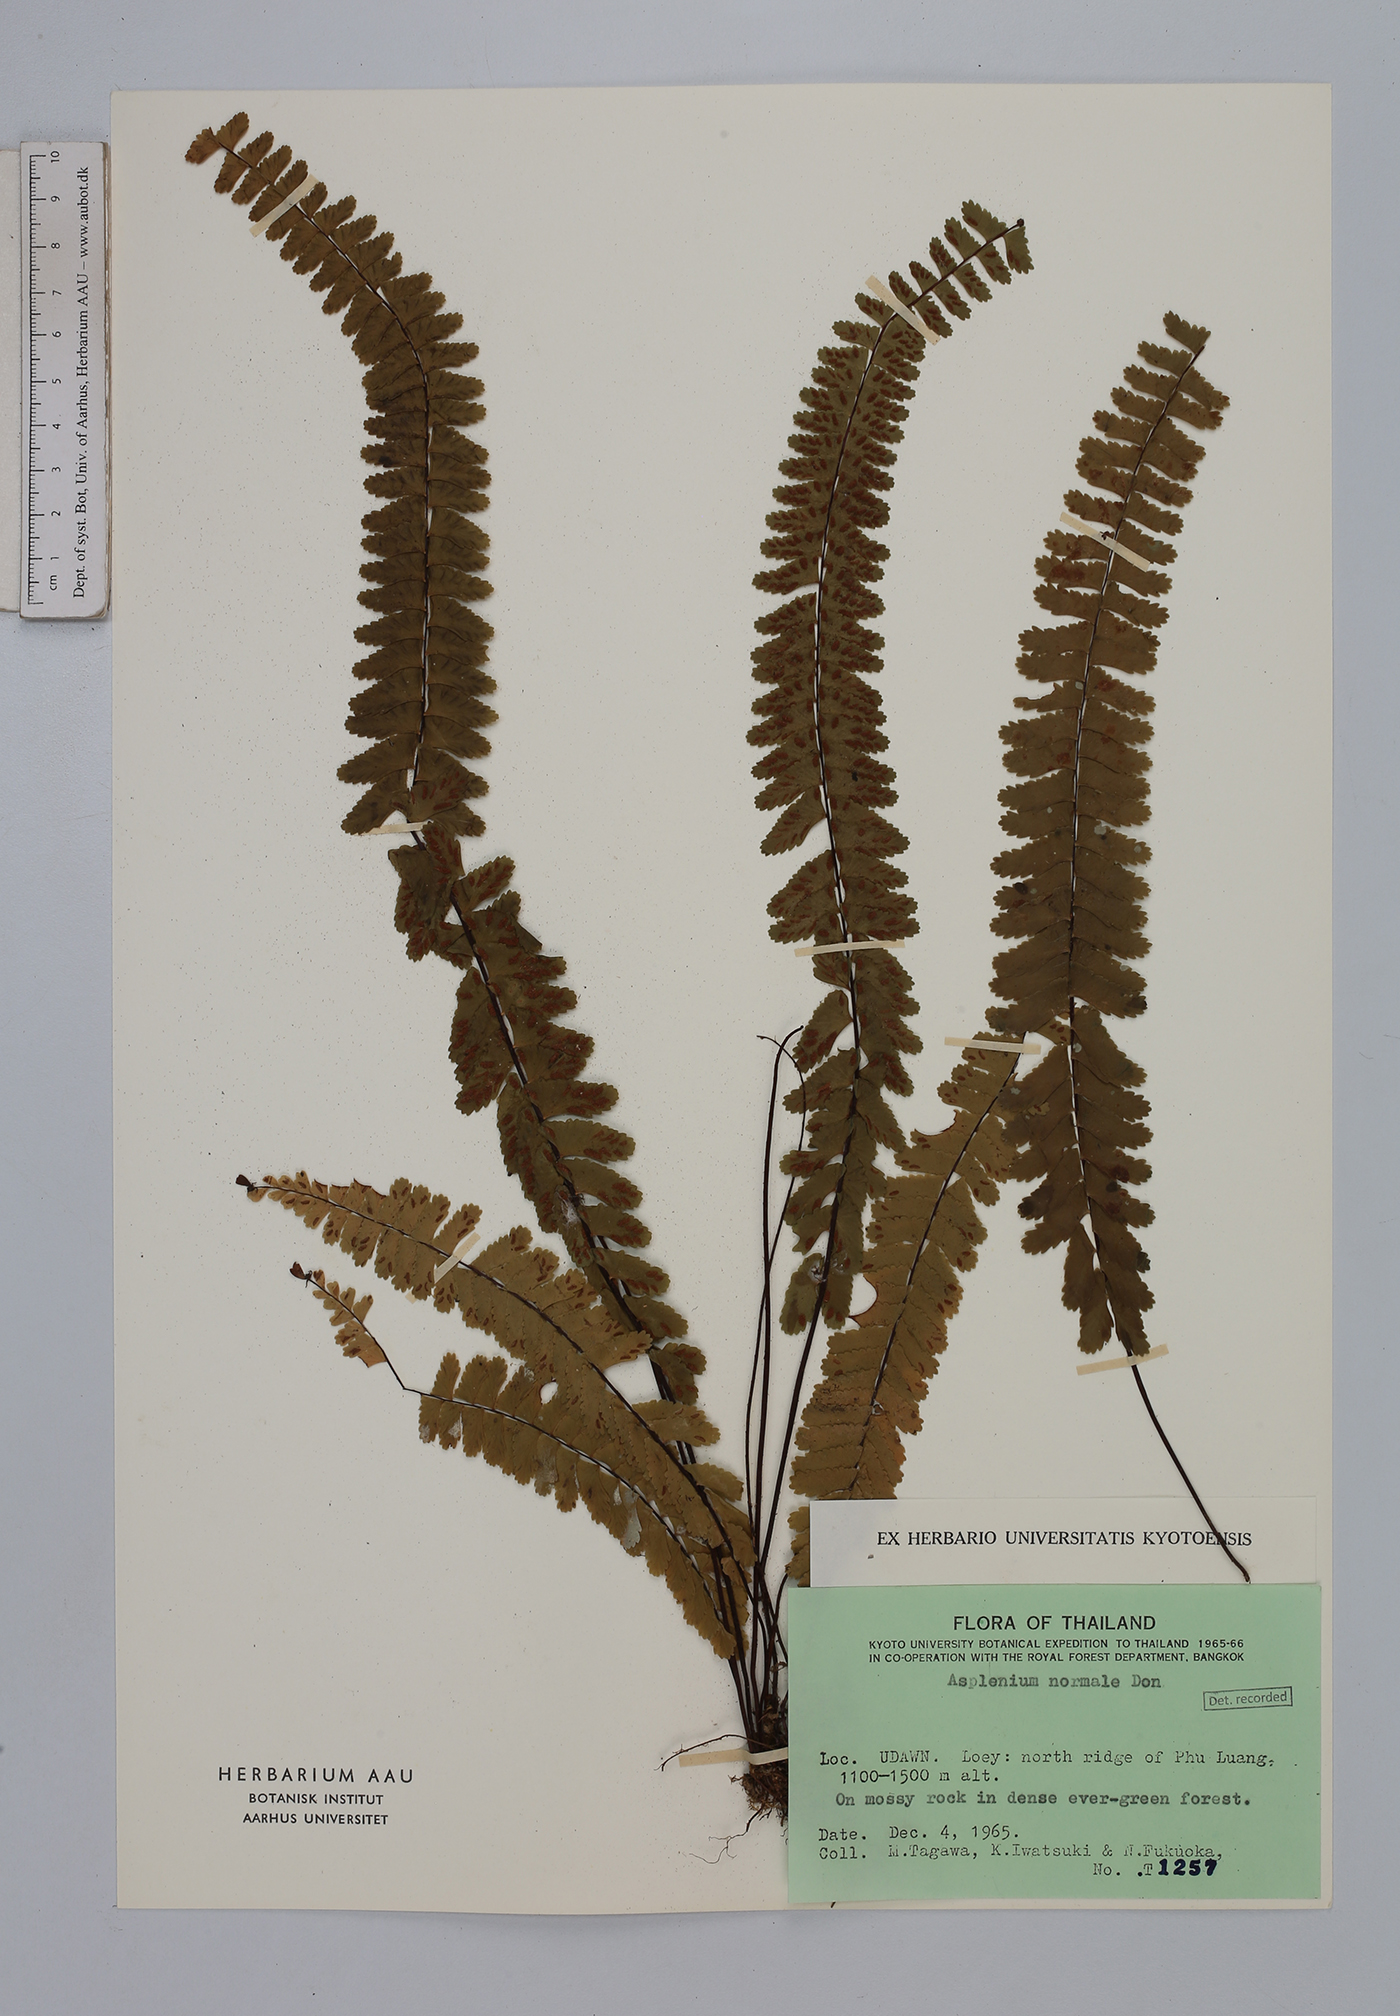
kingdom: Plantae
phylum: Tracheophyta
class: Polypodiopsida
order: Polypodiales
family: Aspleniaceae
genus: Asplenium
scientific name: Asplenium normale
